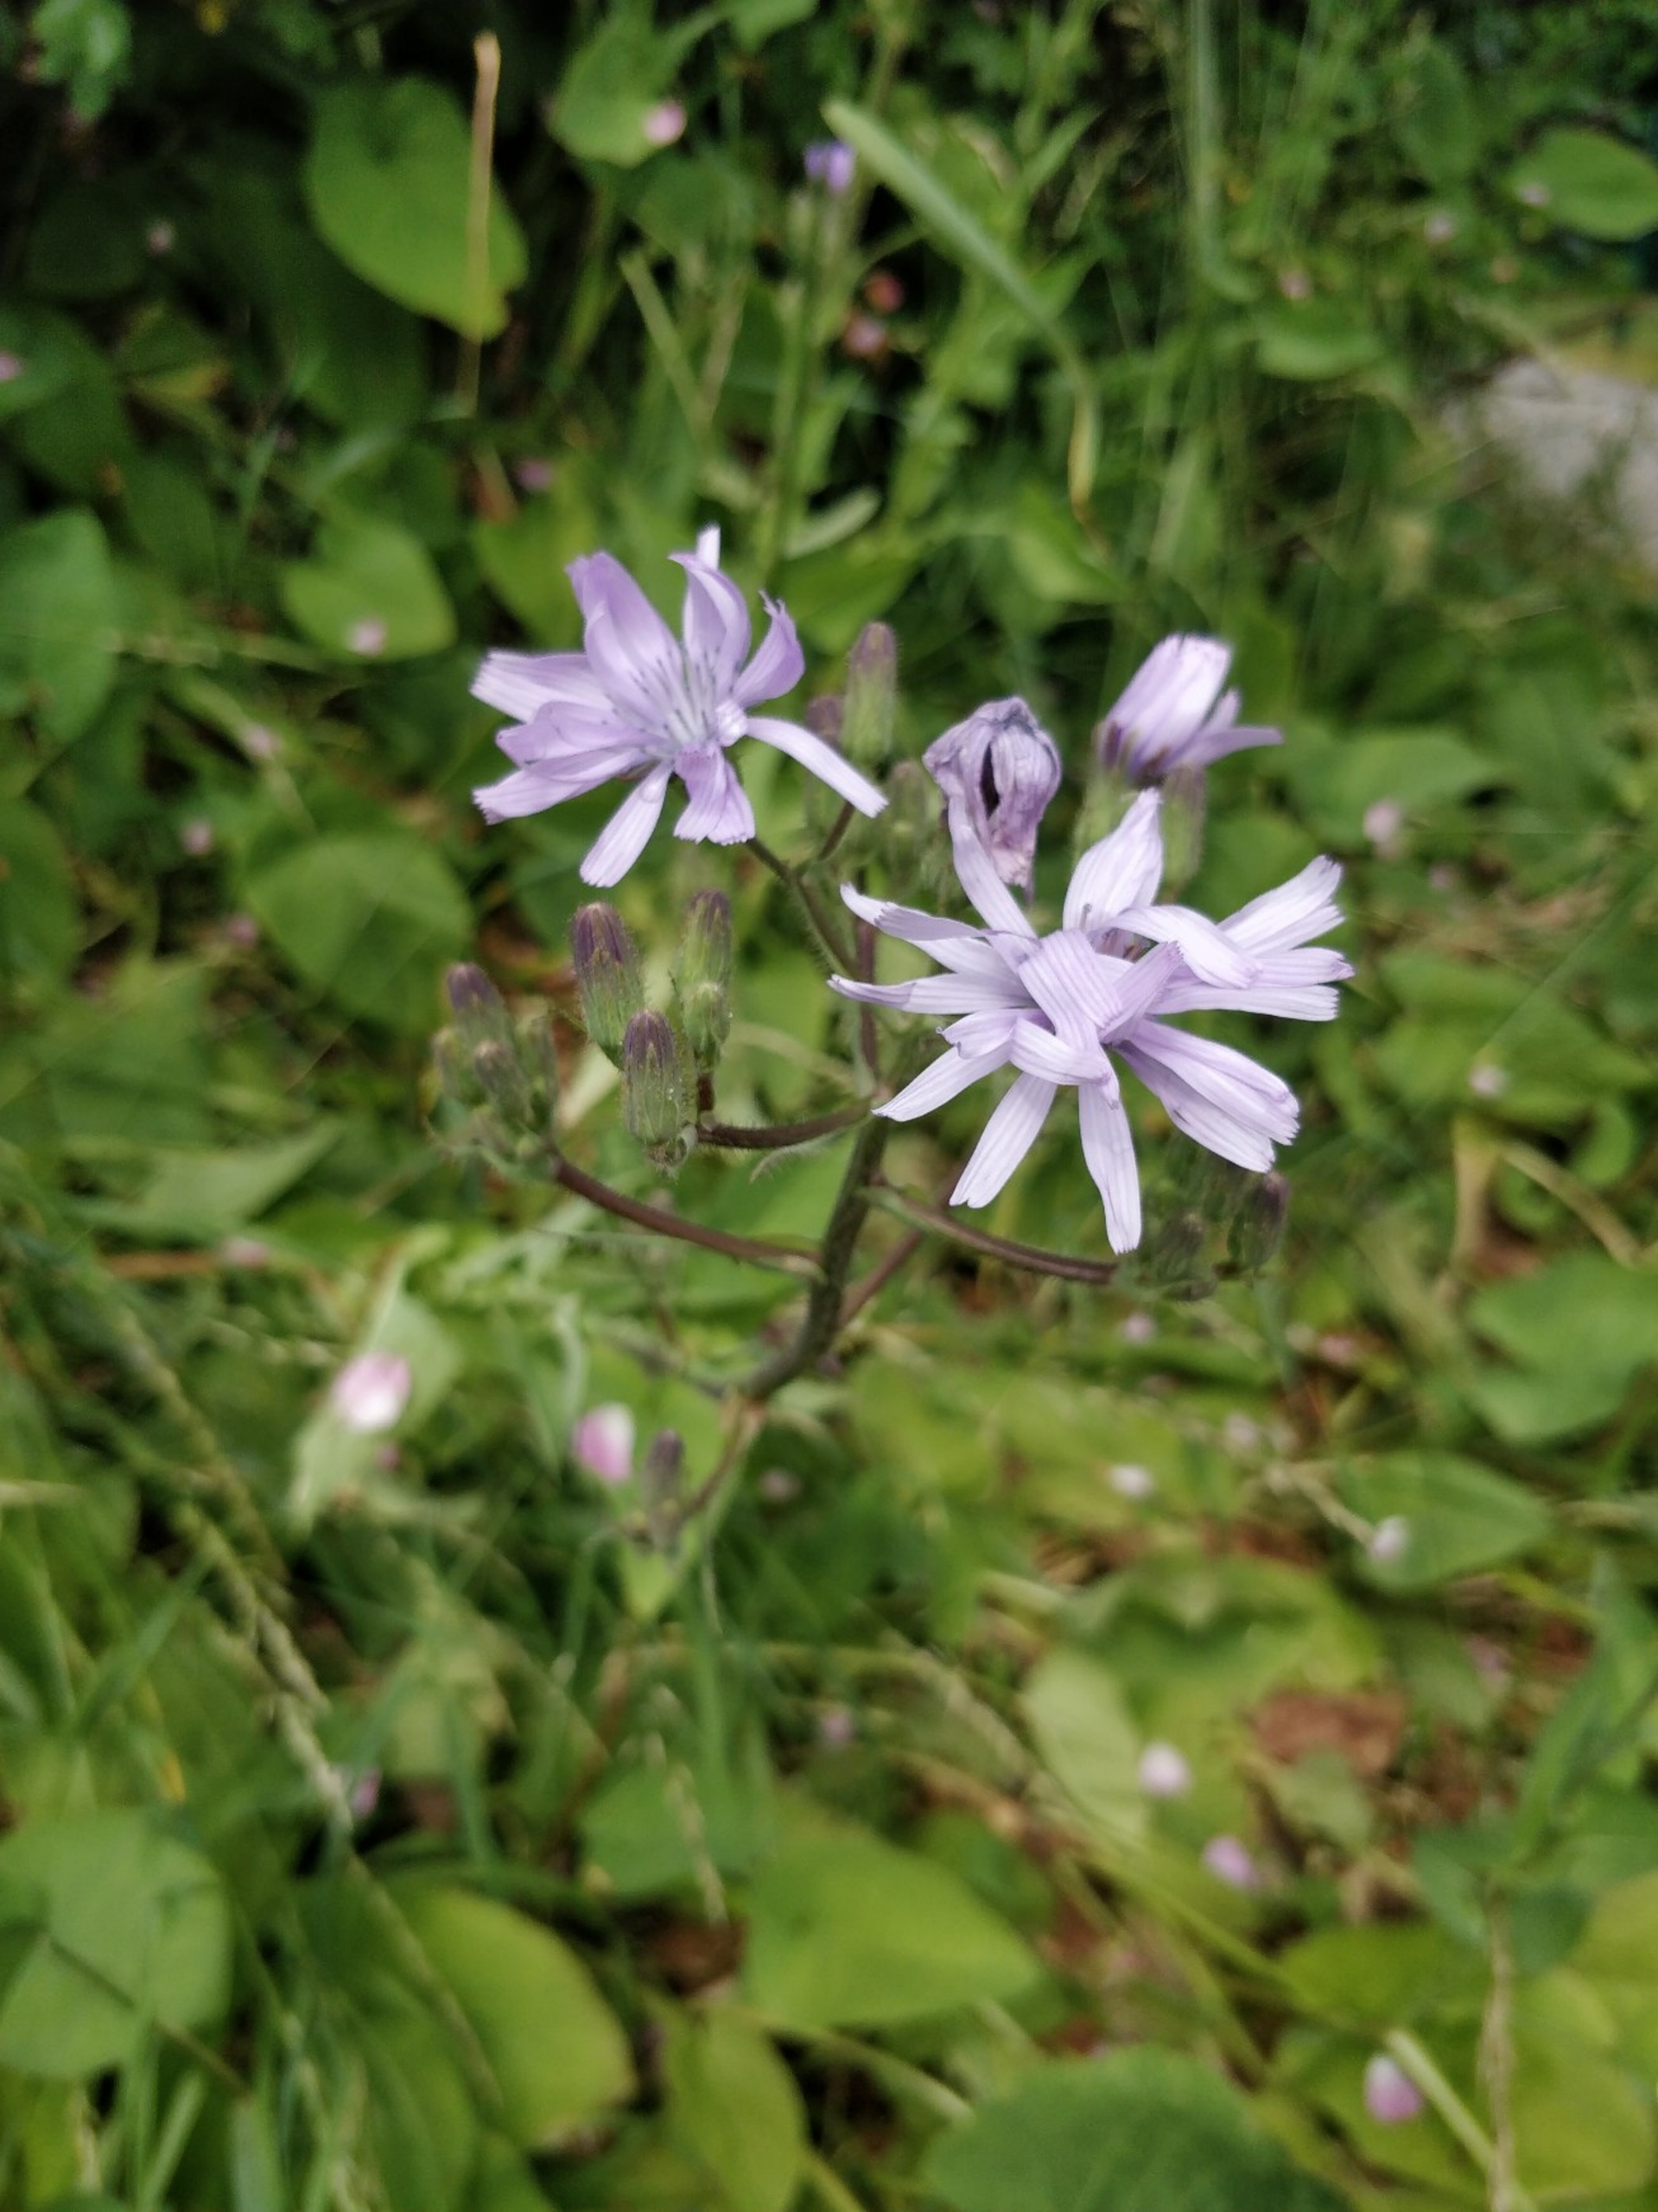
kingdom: Plantae
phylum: Tracheophyta
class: Magnoliopsida
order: Asterales
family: Asteraceae
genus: Lactuca
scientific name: Lactuca macrophylla
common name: Kæmpe-salat
